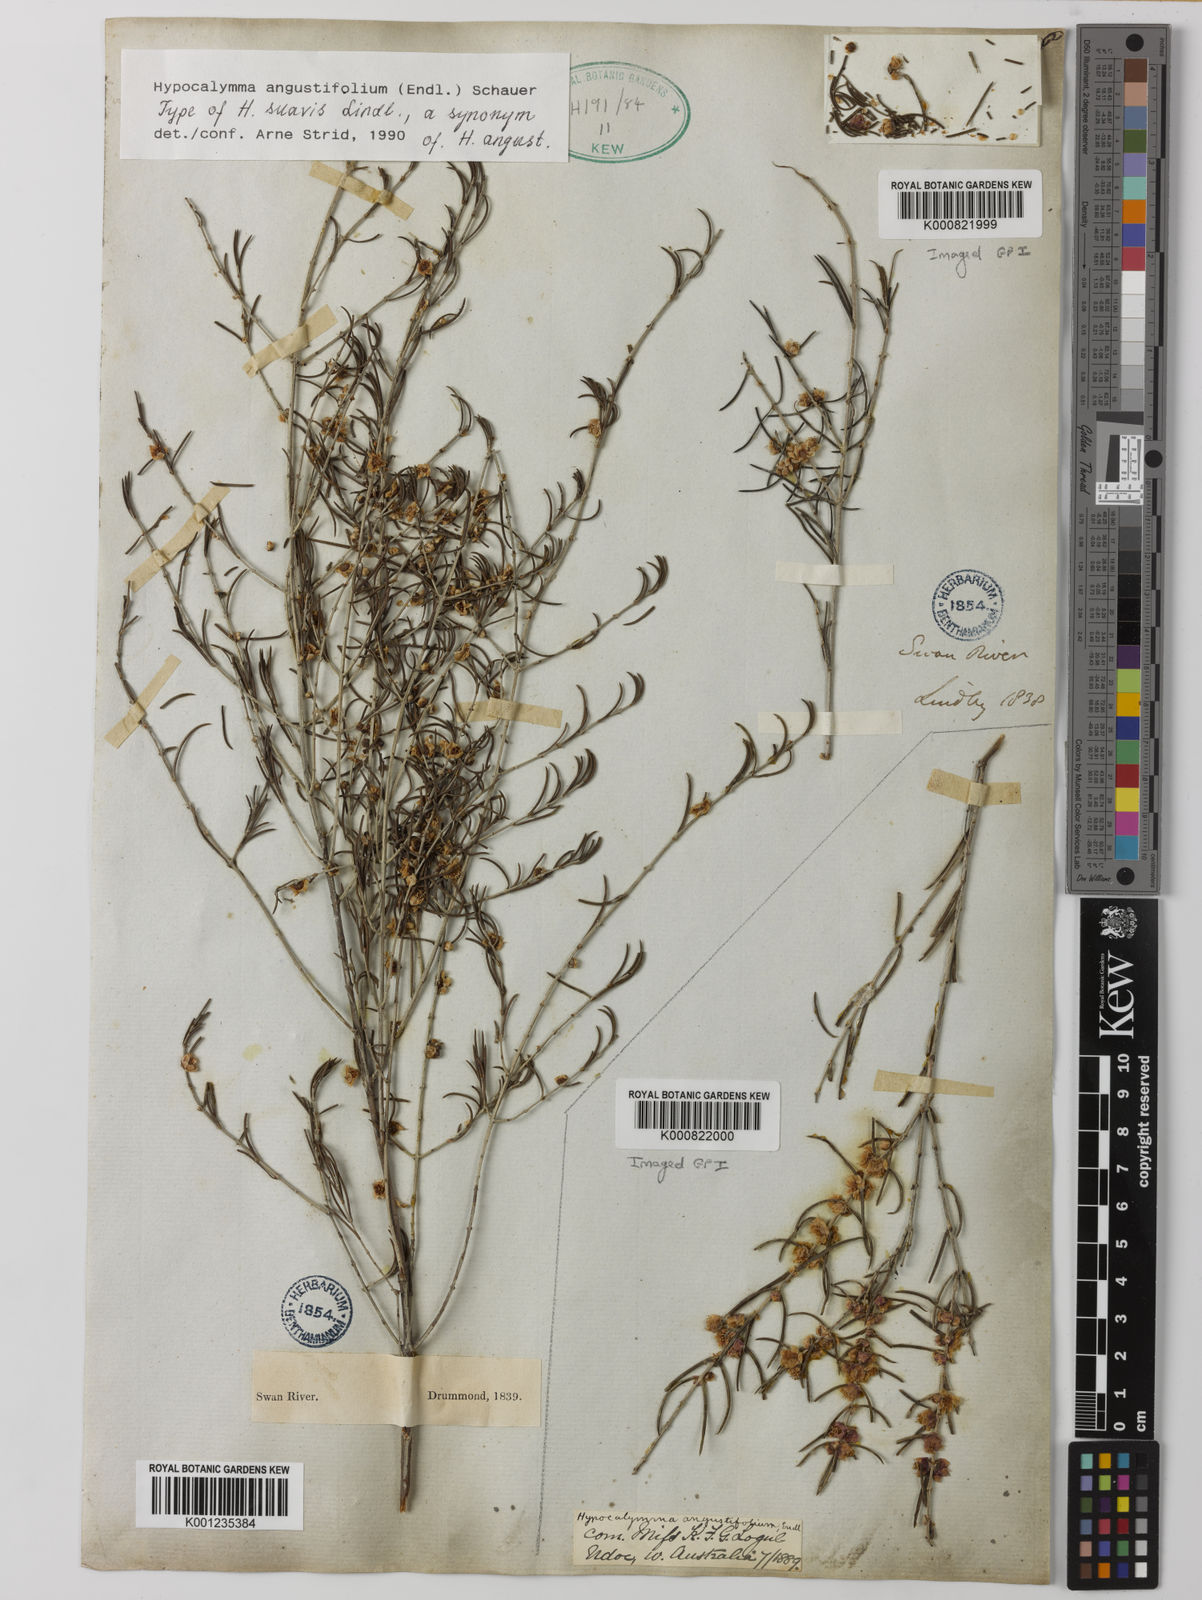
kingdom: Plantae
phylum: Tracheophyta
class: Magnoliopsida
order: Myrtales
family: Myrtaceae
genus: Hypocalymma
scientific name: Hypocalymma angustifolium
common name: White myrtle
